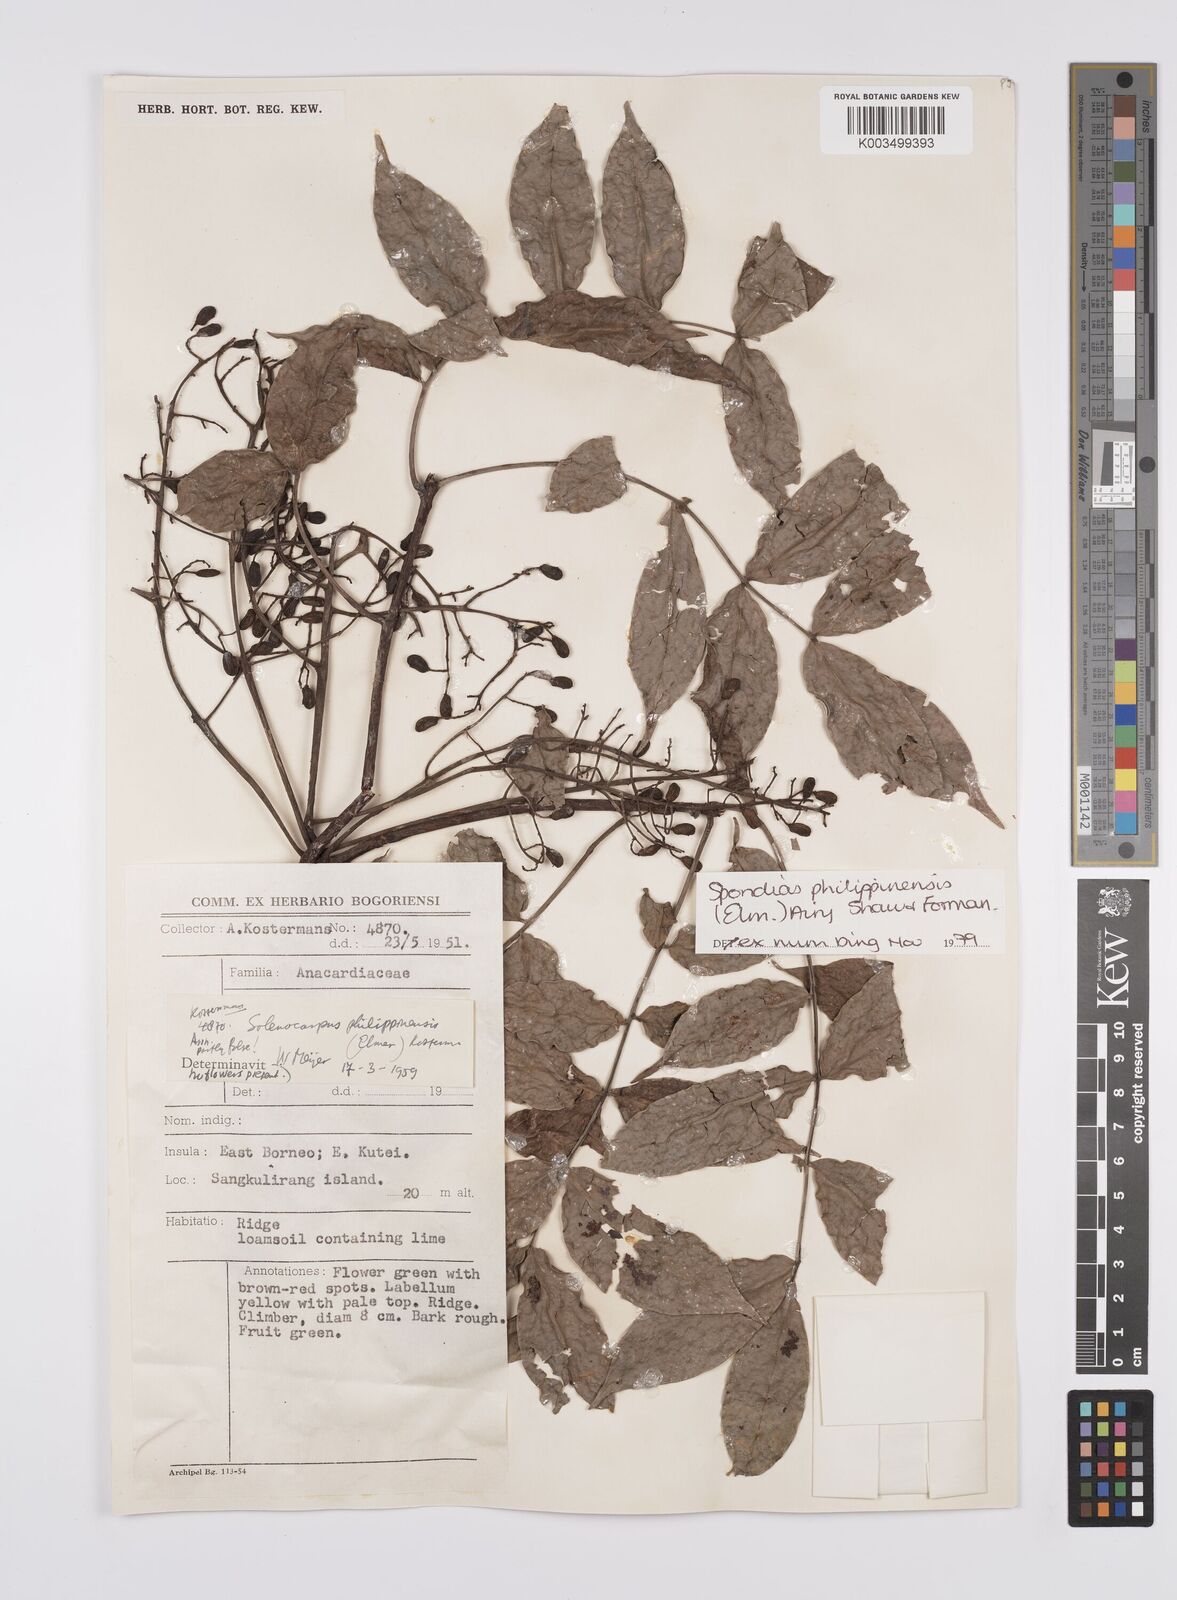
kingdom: Plantae
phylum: Tracheophyta
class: Magnoliopsida
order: Sapindales
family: Anacardiaceae
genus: Spondias
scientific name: Spondias philippinensis
